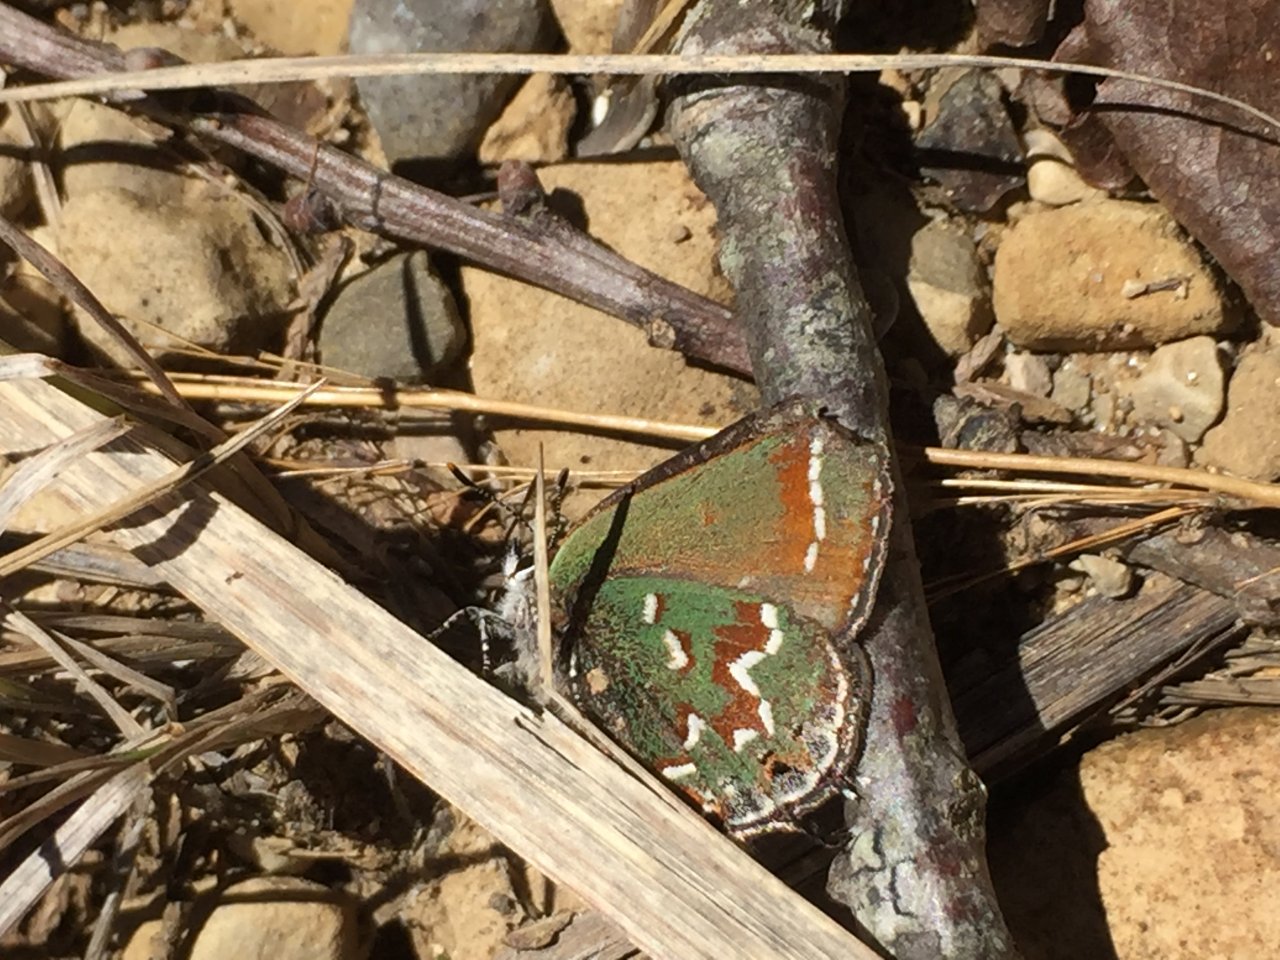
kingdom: Animalia
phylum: Arthropoda
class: Insecta
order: Lepidoptera
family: Lycaenidae
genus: Mitoura
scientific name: Mitoura gryneus
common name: Juniper Hairstreak
